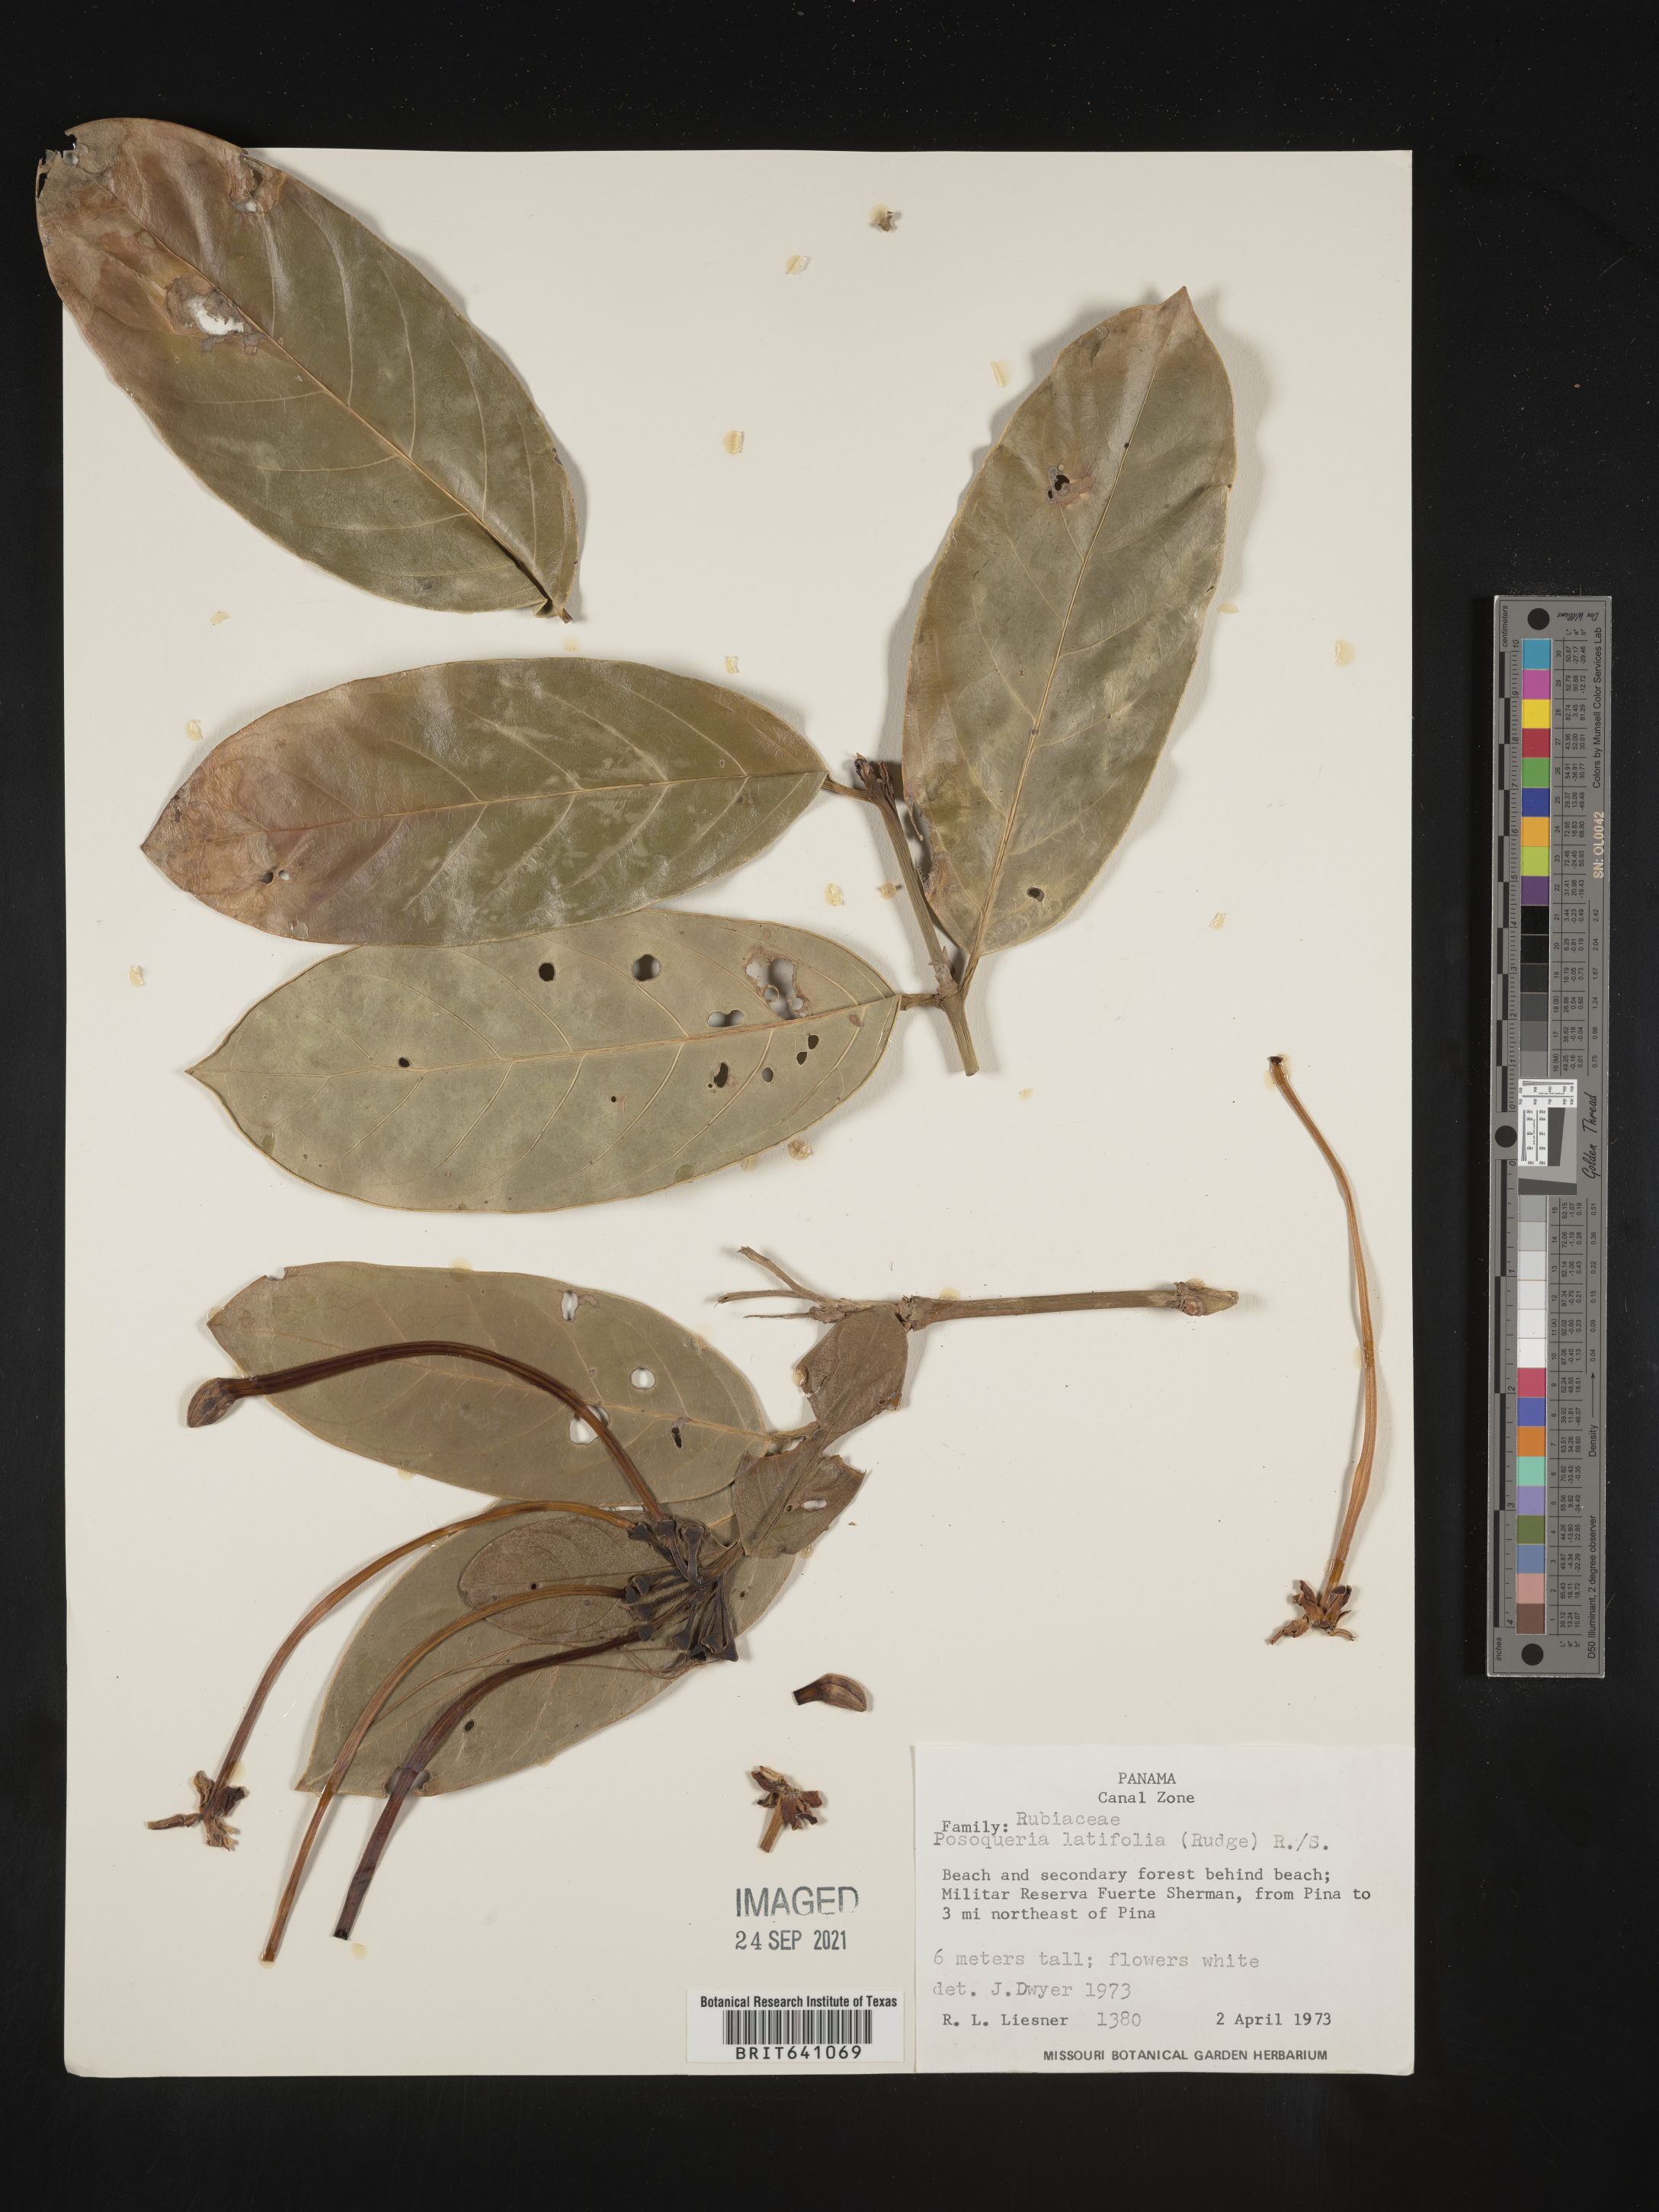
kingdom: Plantae
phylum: Tracheophyta
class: Magnoliopsida
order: Gentianales
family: Rubiaceae
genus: Posoqueria
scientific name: Posoqueria
